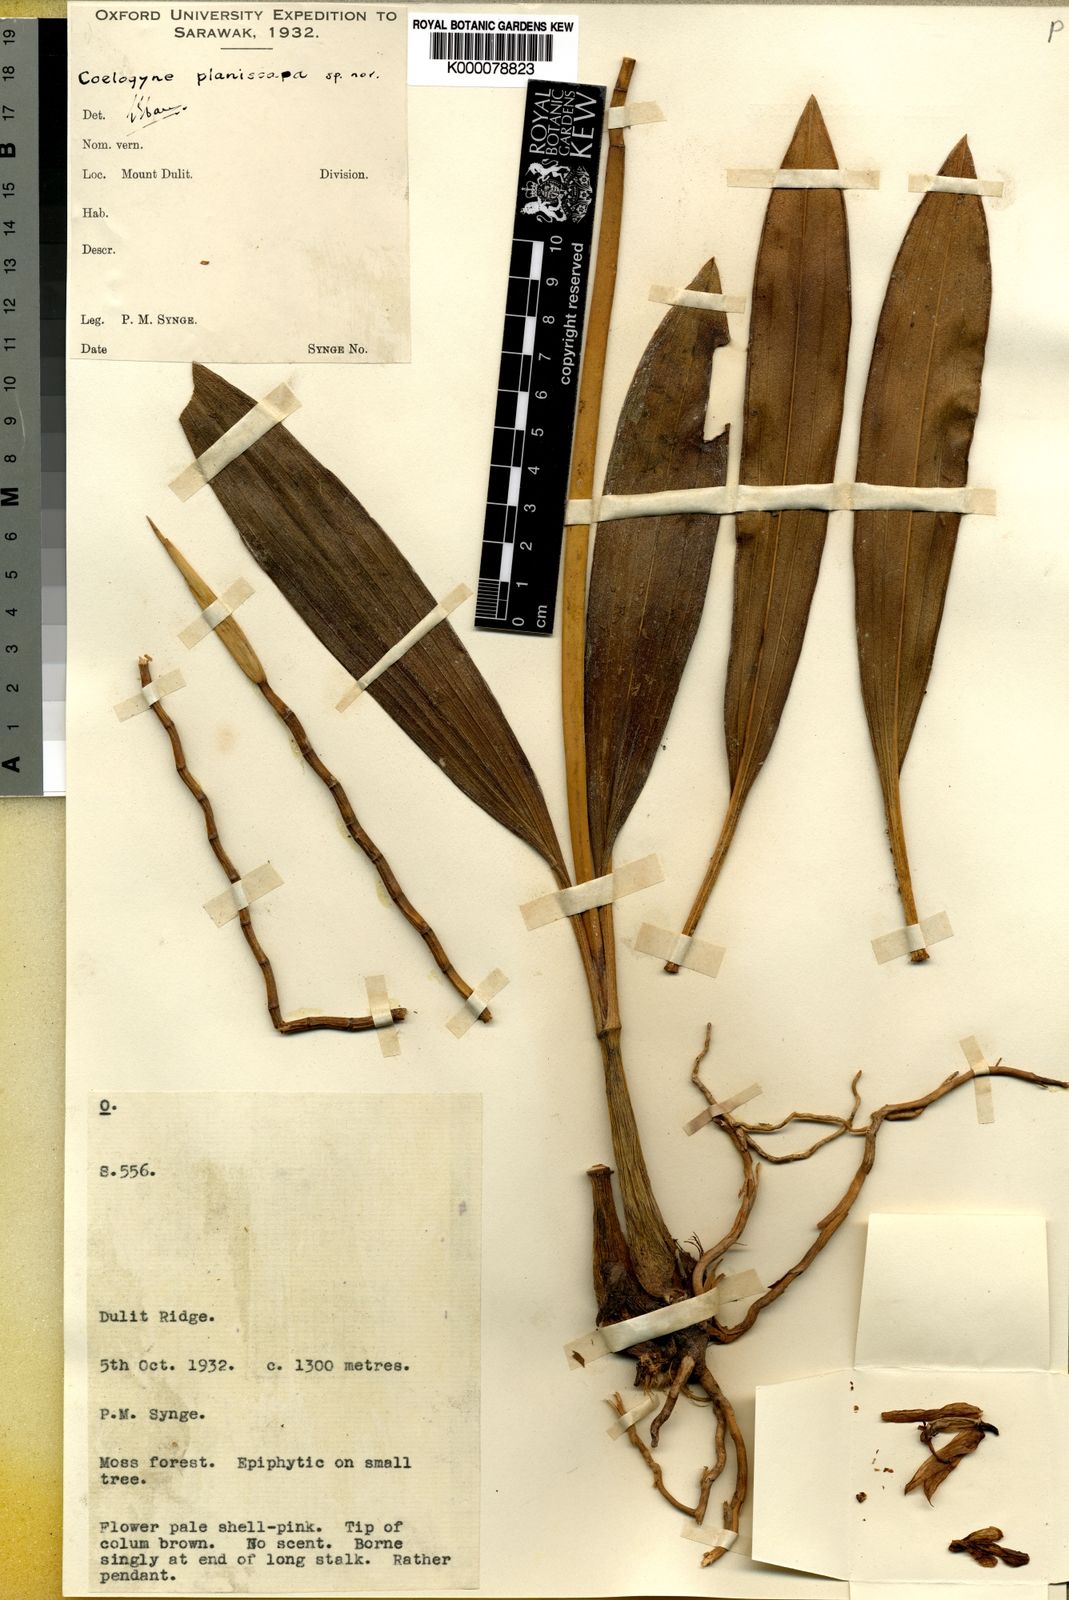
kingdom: Plantae
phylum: Tracheophyta
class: Liliopsida
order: Asparagales
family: Orchidaceae
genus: Coelogyne
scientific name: Coelogyne planiscapa
